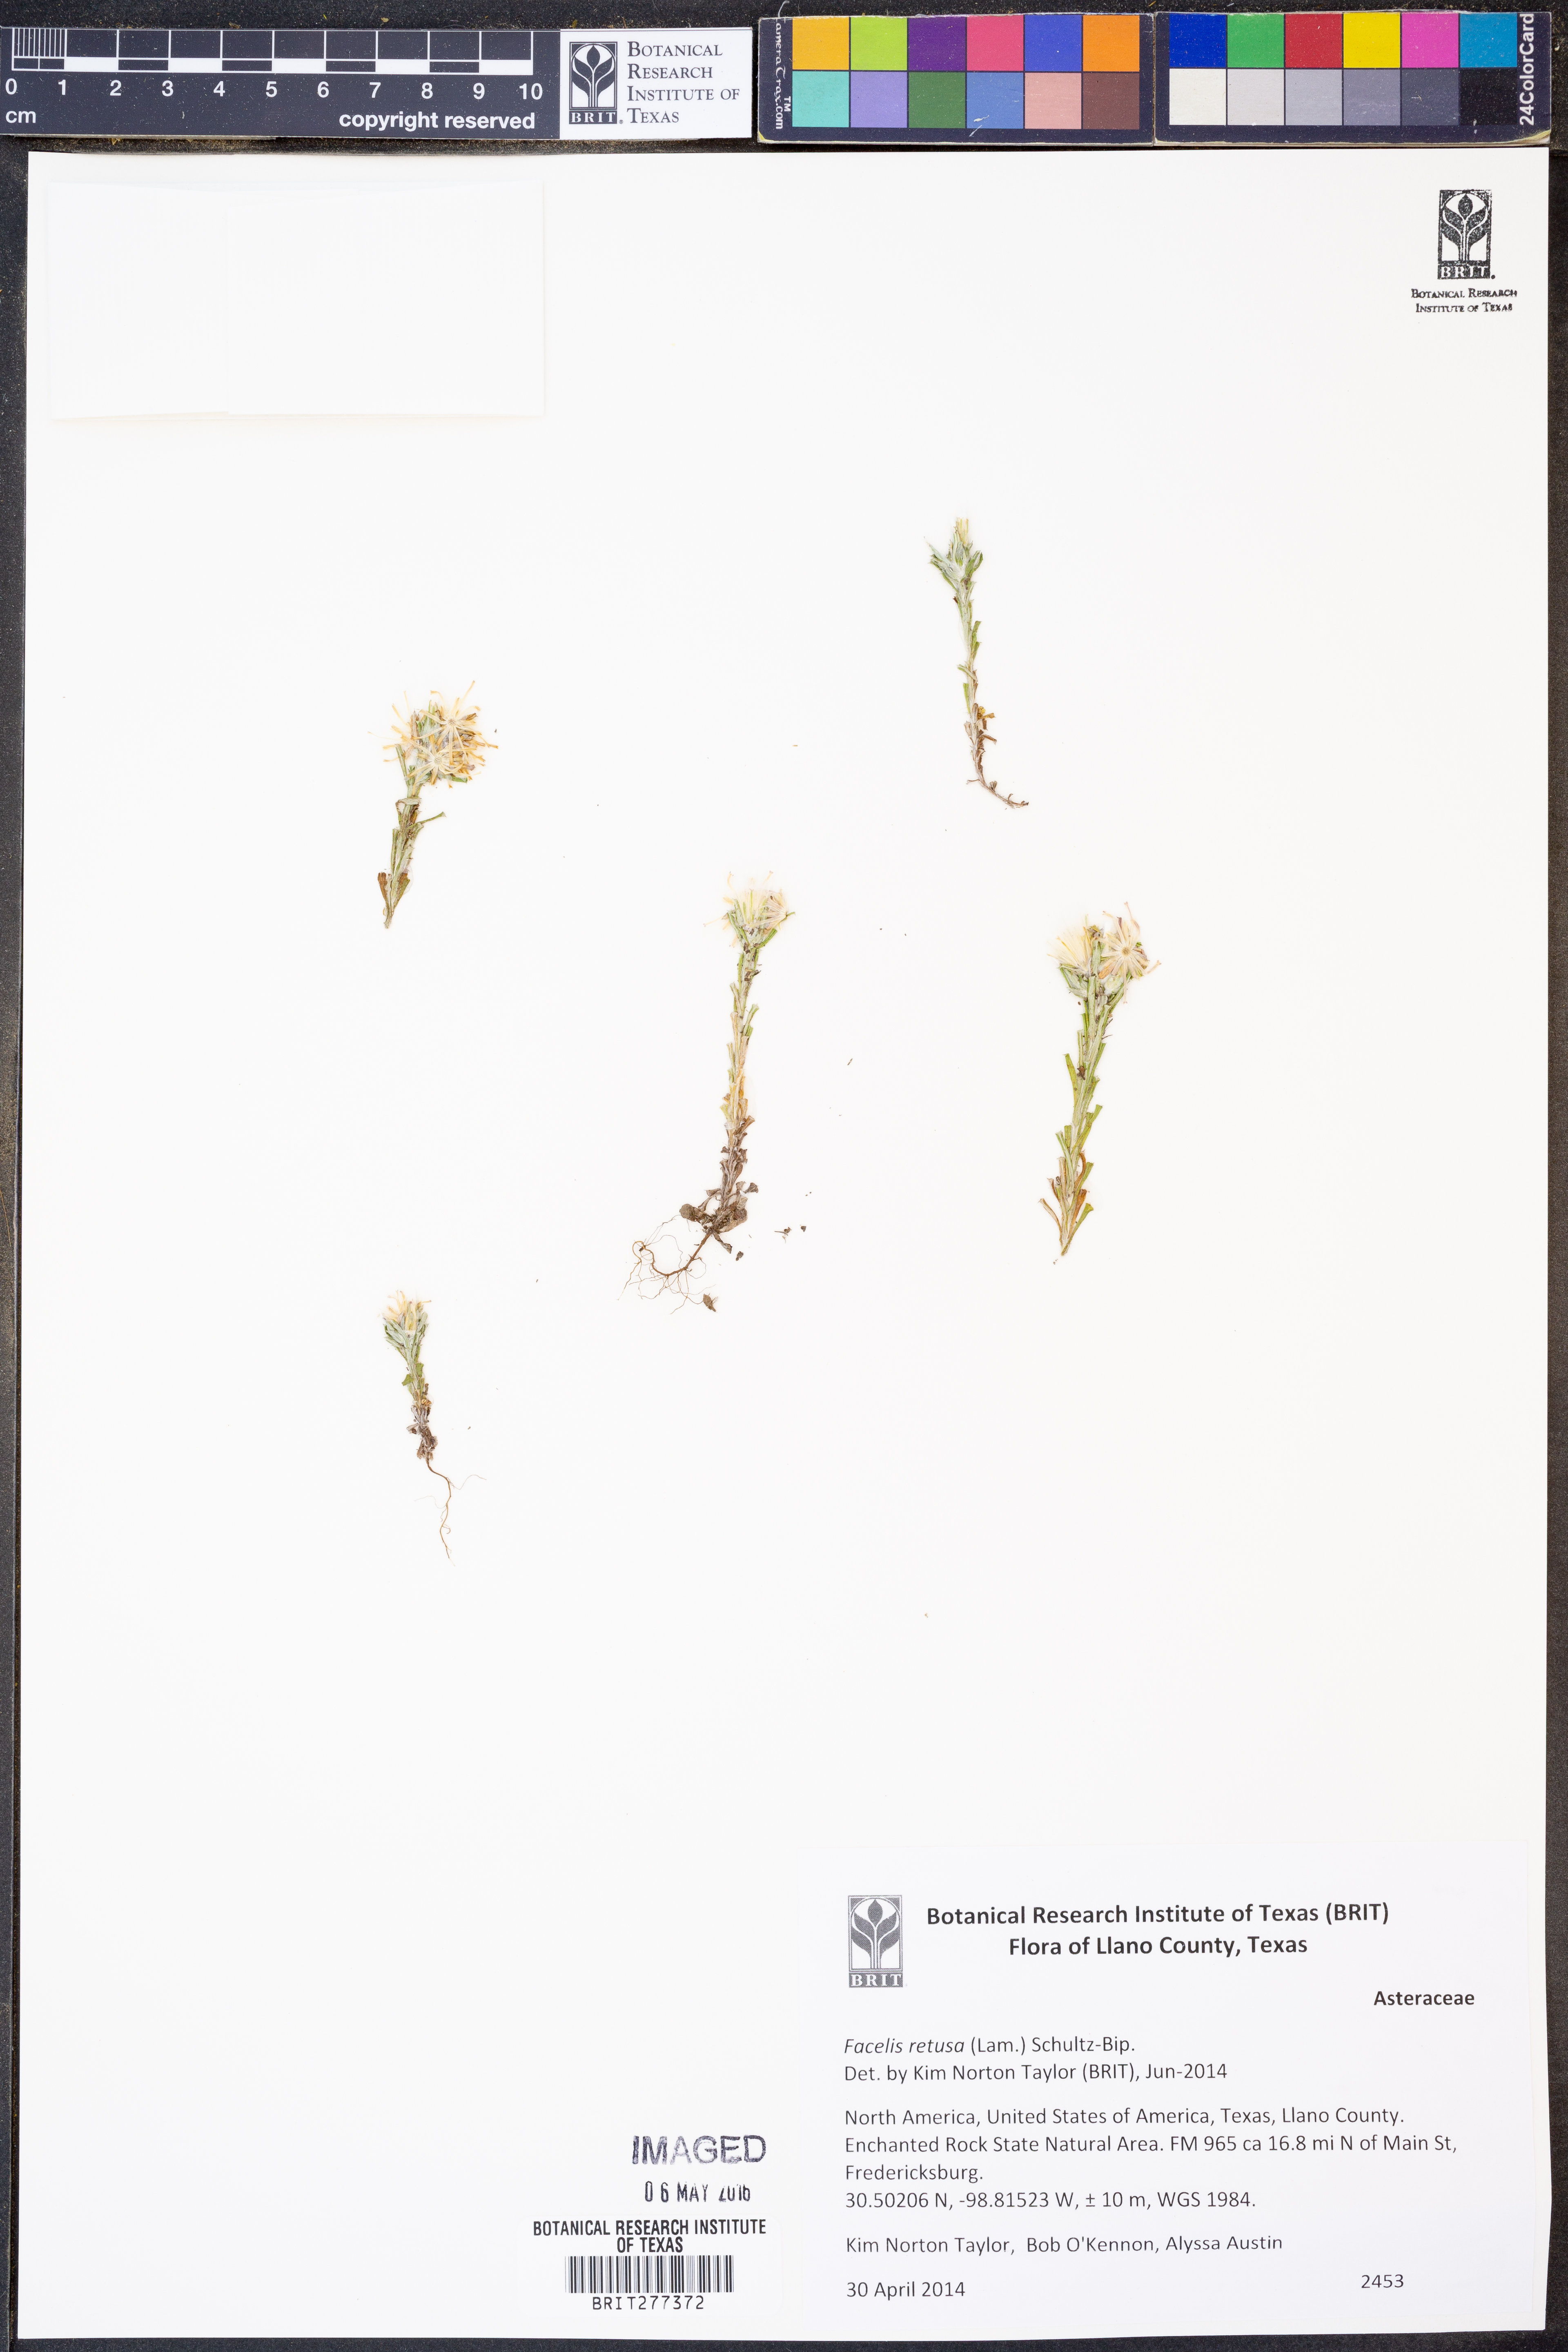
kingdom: Plantae
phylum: Tracheophyta
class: Magnoliopsida
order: Asterales
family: Asteraceae
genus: Facelis
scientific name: Facelis retusa
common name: Annual trampweed
